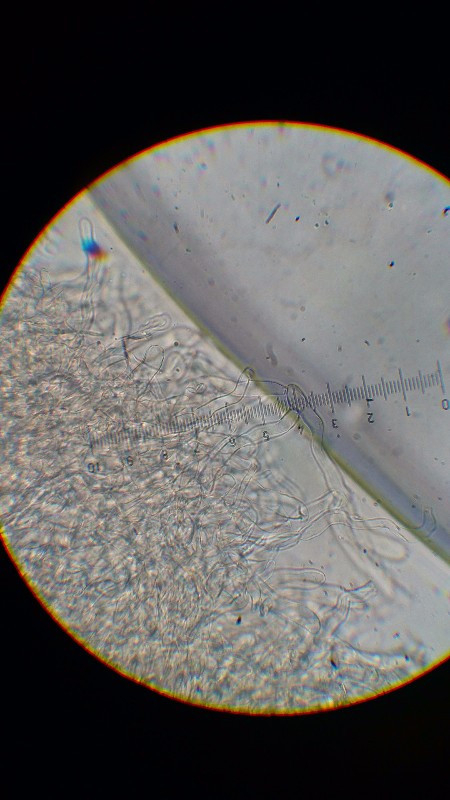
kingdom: Fungi
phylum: Basidiomycota
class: Agaricomycetes
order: Agaricales
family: Agaricaceae
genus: Lepiota
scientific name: Lepiota
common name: parasolhat
